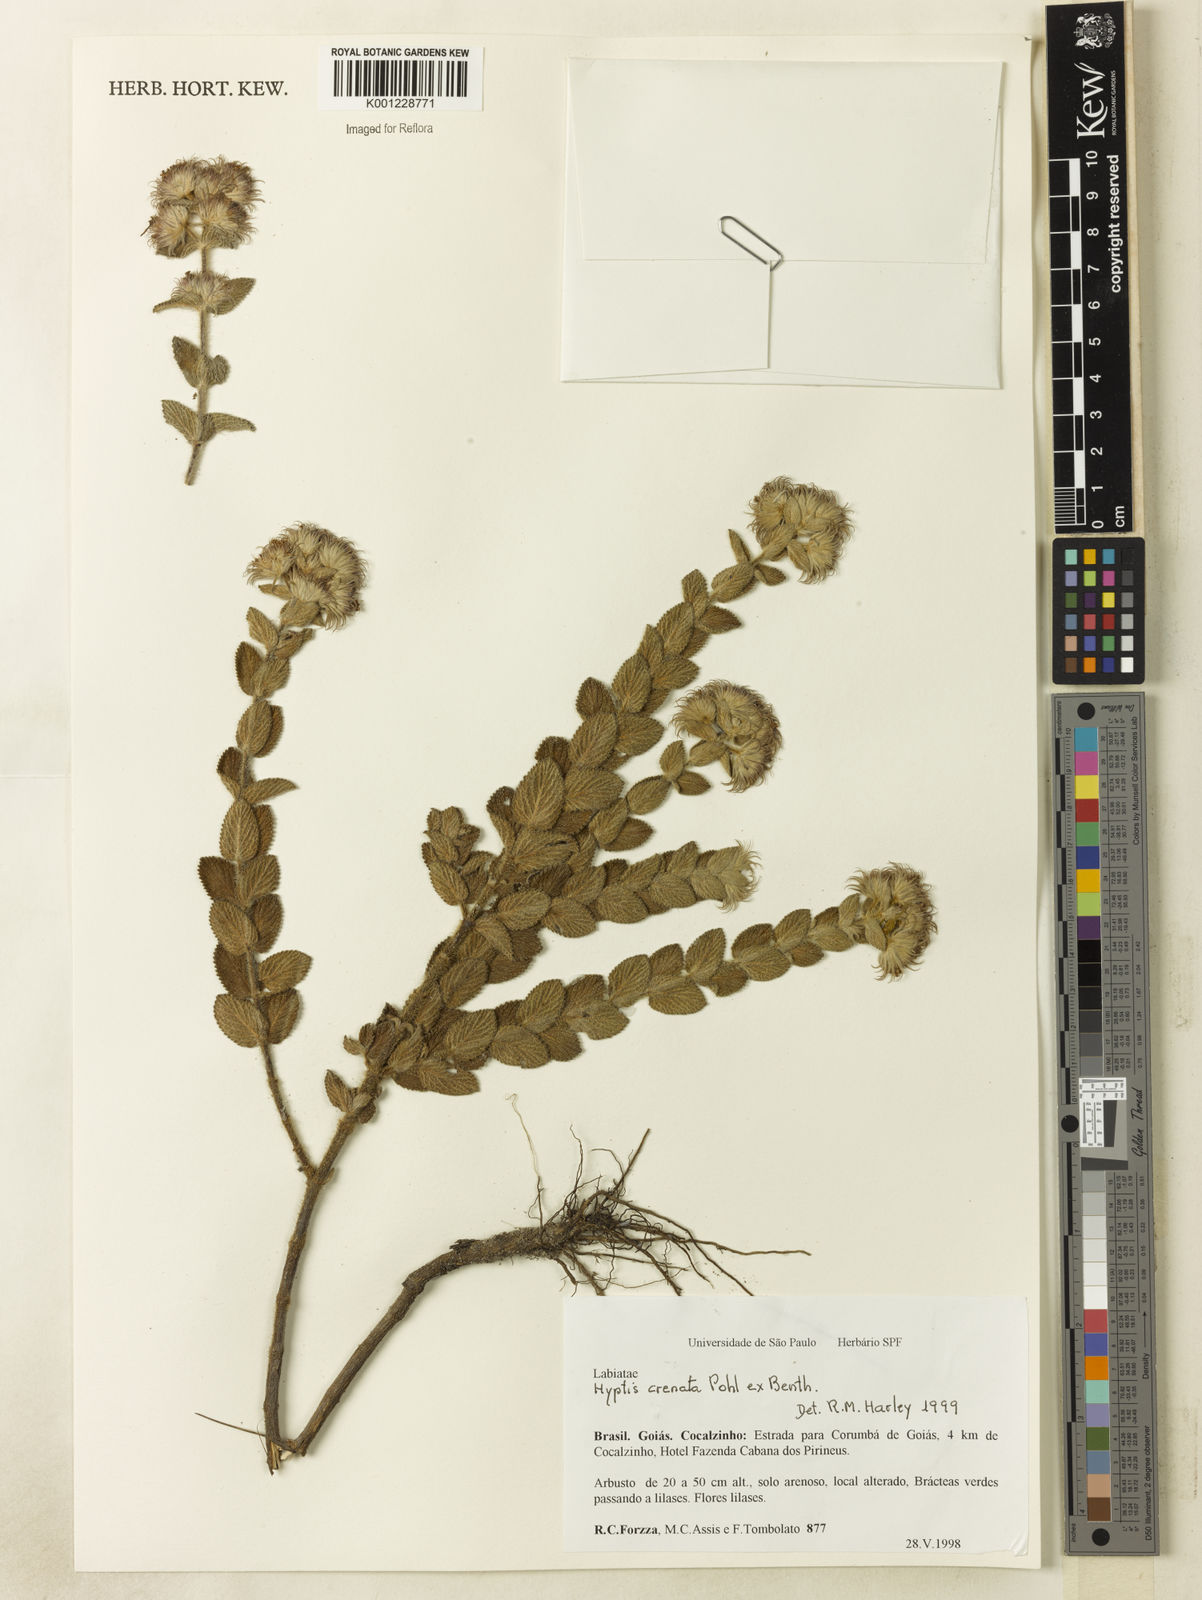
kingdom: Plantae
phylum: Tracheophyta
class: Magnoliopsida
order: Lamiales
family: Lamiaceae
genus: Hyptis
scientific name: Hyptis crenata
